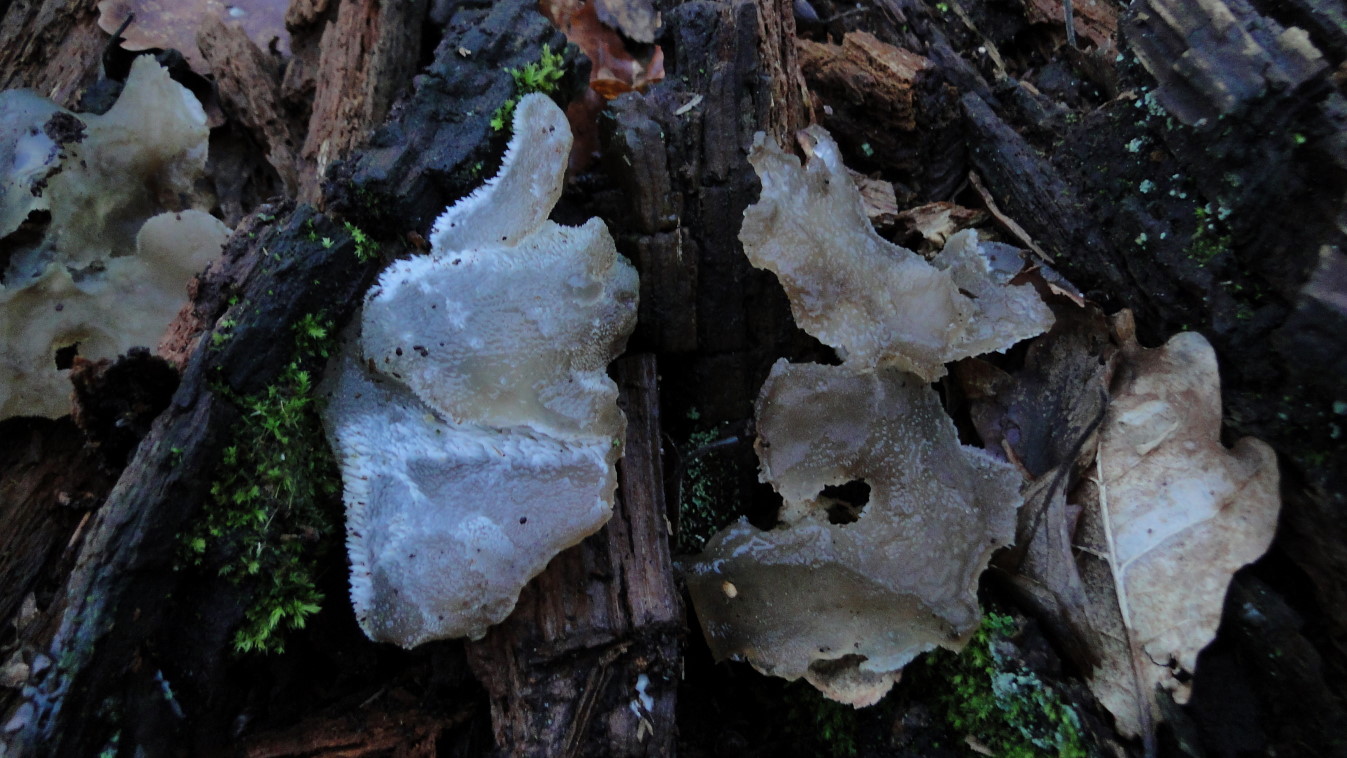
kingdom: Fungi
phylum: Basidiomycota
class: Agaricomycetes
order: Auriculariales
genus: Pseudohydnum
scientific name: Pseudohydnum gelatinosum
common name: bævretand
